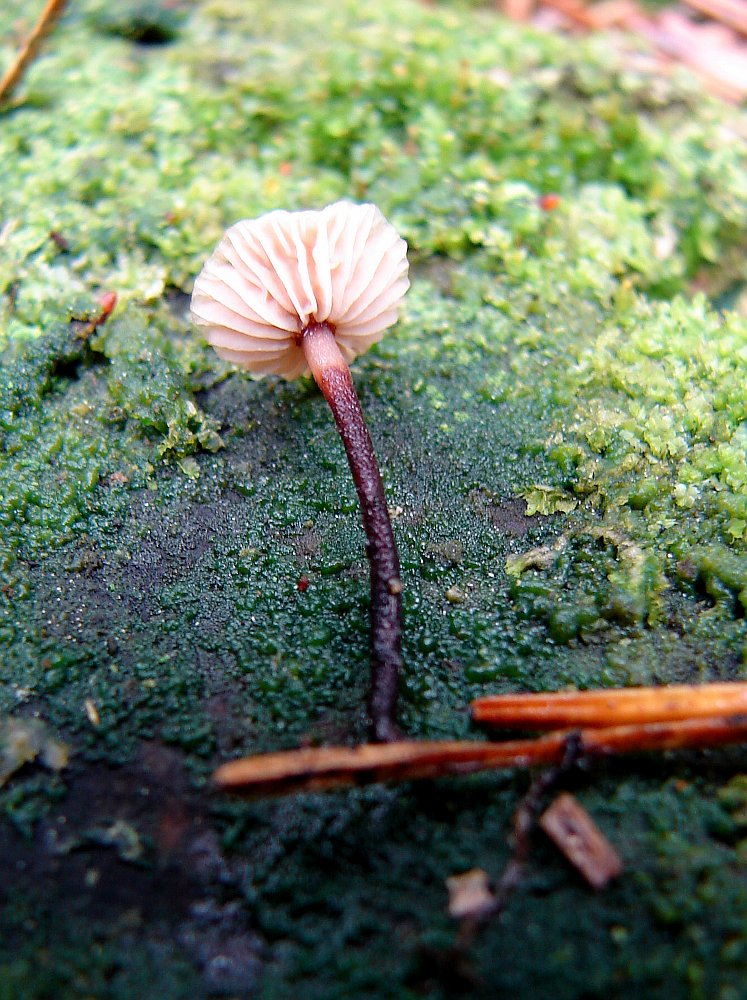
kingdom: Fungi
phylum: Basidiomycota
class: Agaricomycetes
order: Agaricales
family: Omphalotaceae
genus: Paragymnopus
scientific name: Paragymnopus perforans
